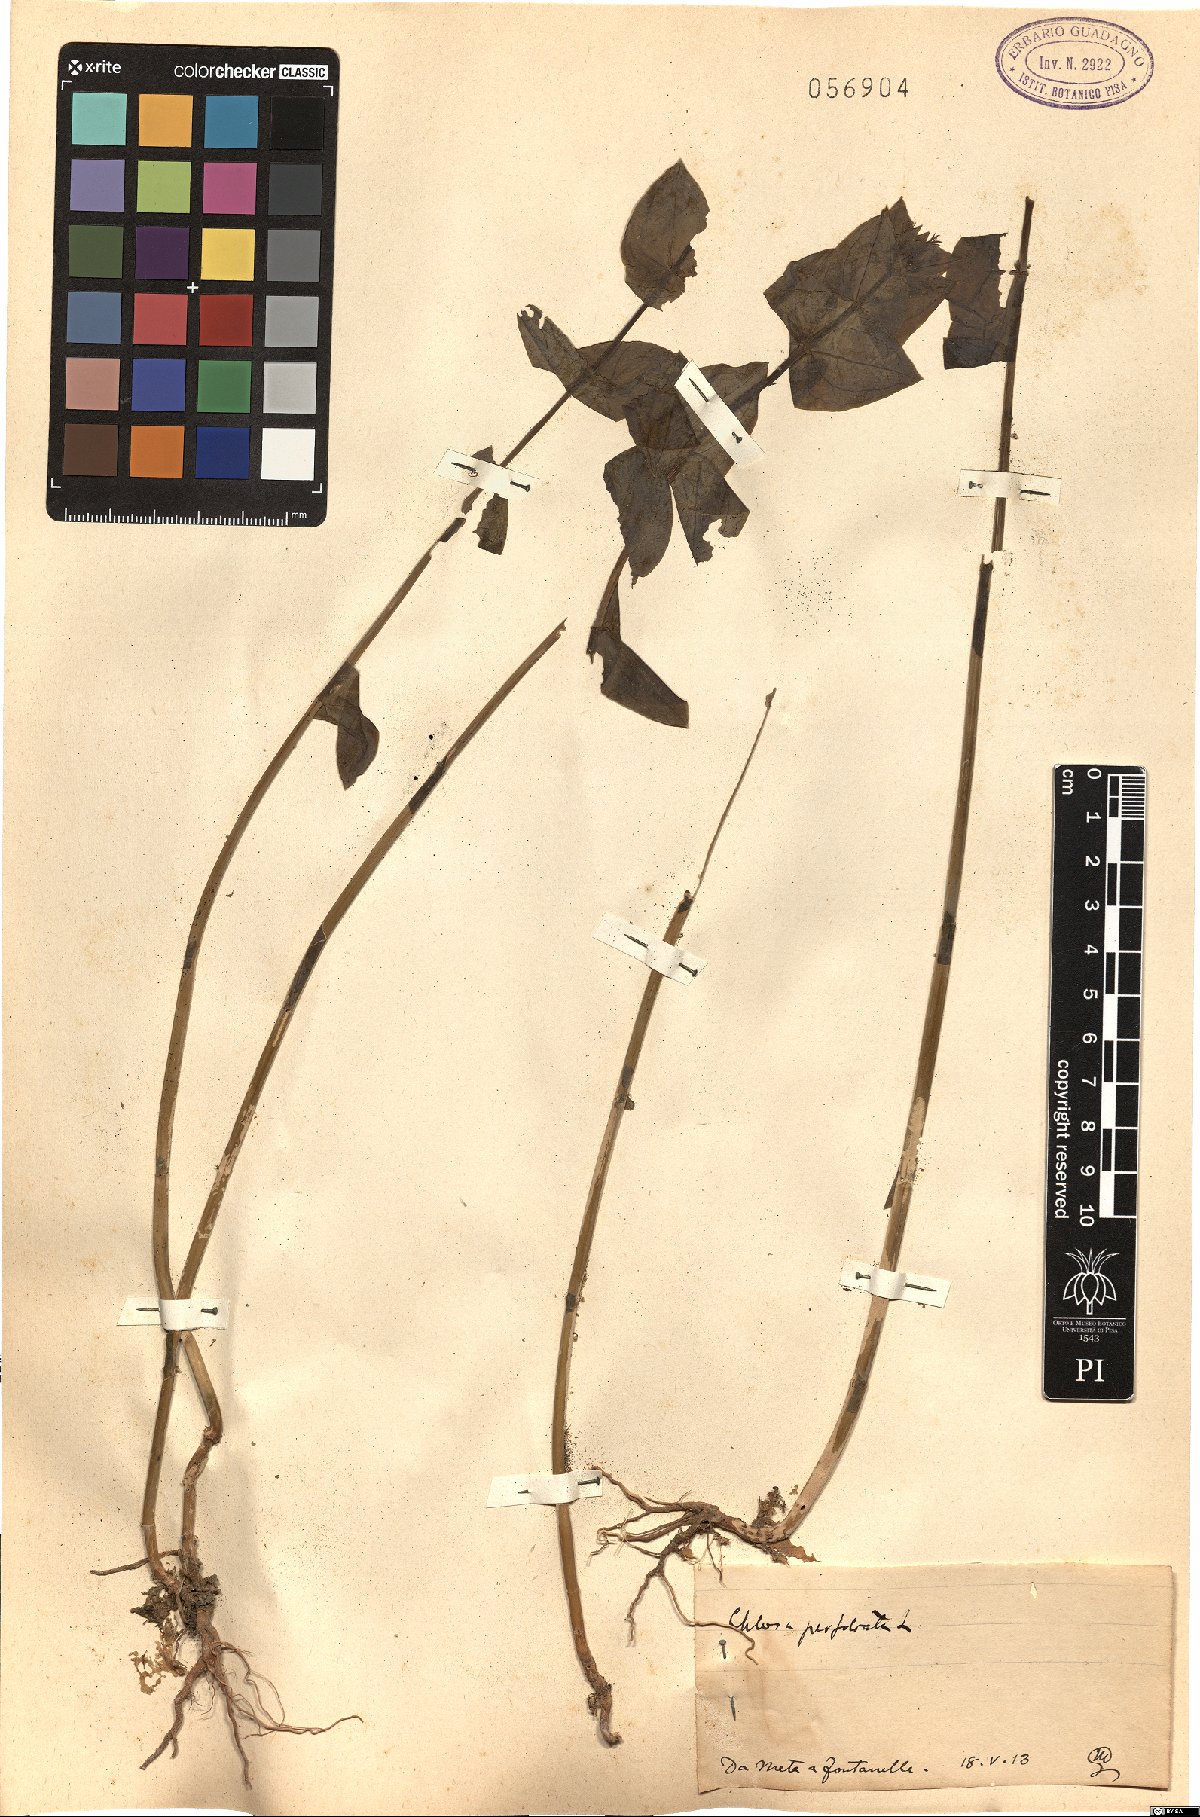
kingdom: Plantae
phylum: Tracheophyta
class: Magnoliopsida
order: Gentianales
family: Gentianaceae
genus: Blackstonia
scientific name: Blackstonia perfoliata
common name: Yellow-wort
